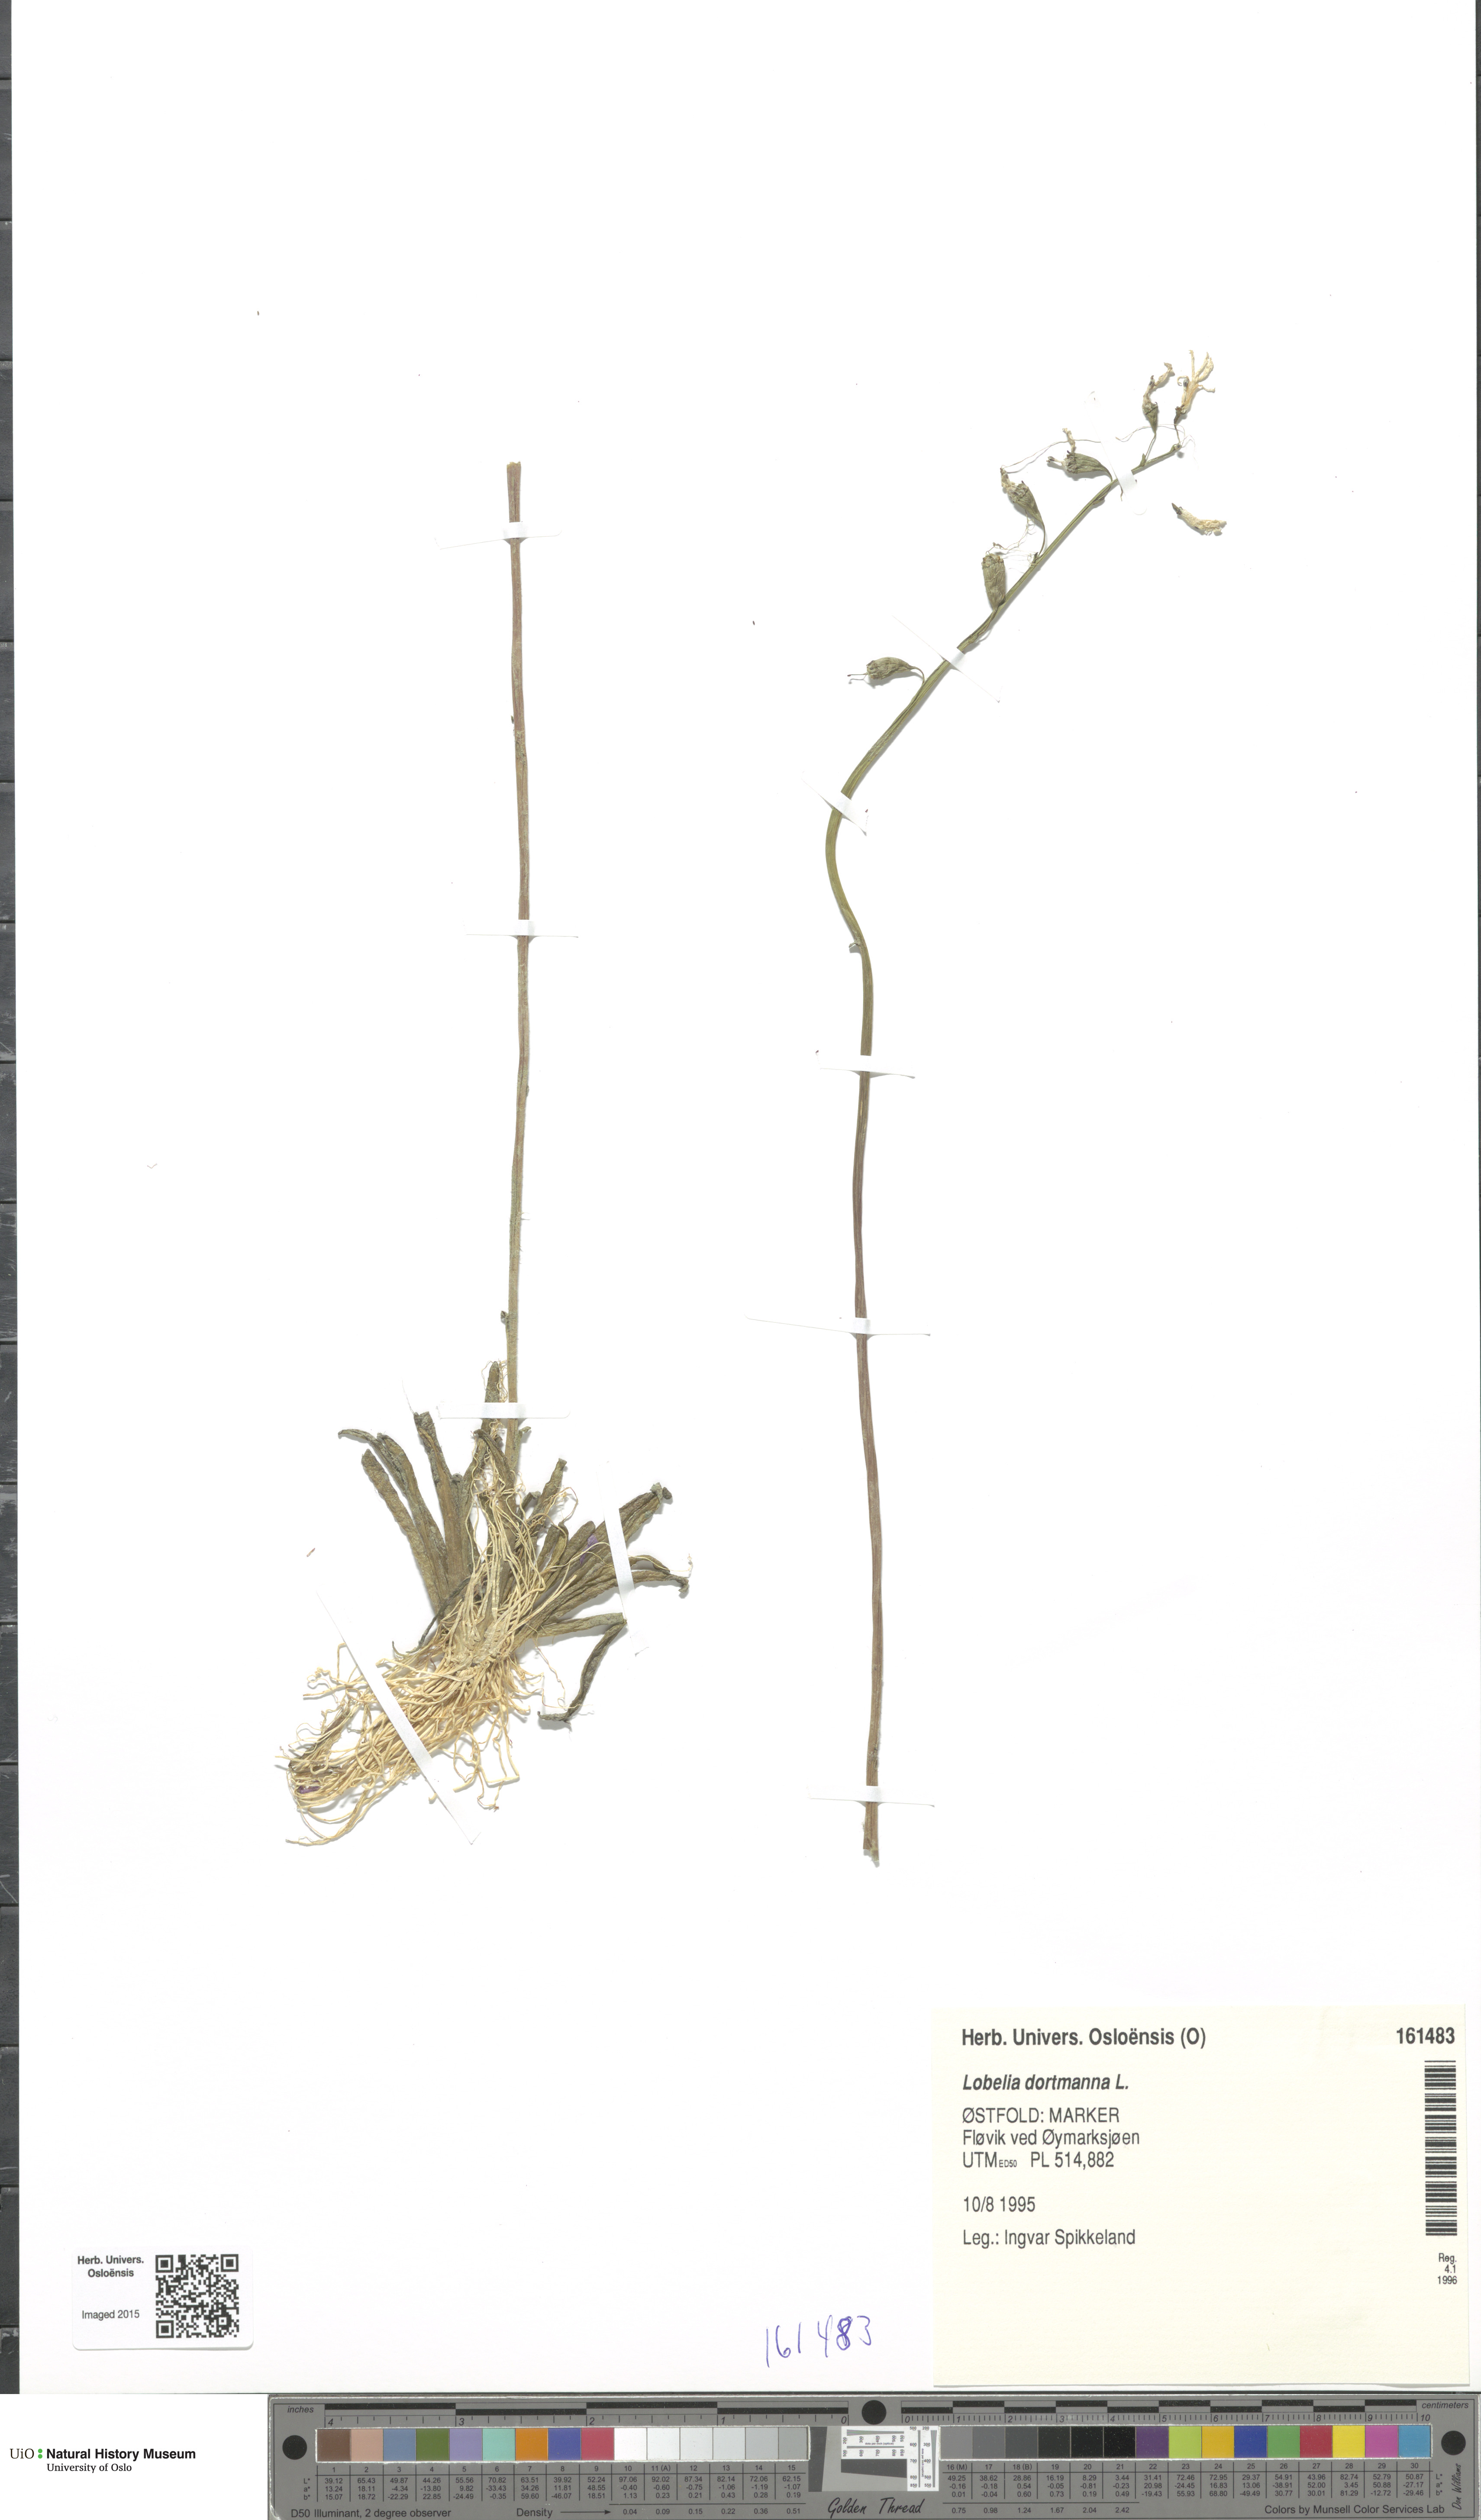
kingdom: Plantae
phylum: Tracheophyta
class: Magnoliopsida
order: Asterales
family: Campanulaceae
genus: Lobelia
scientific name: Lobelia dortmanna
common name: Water lobelia
